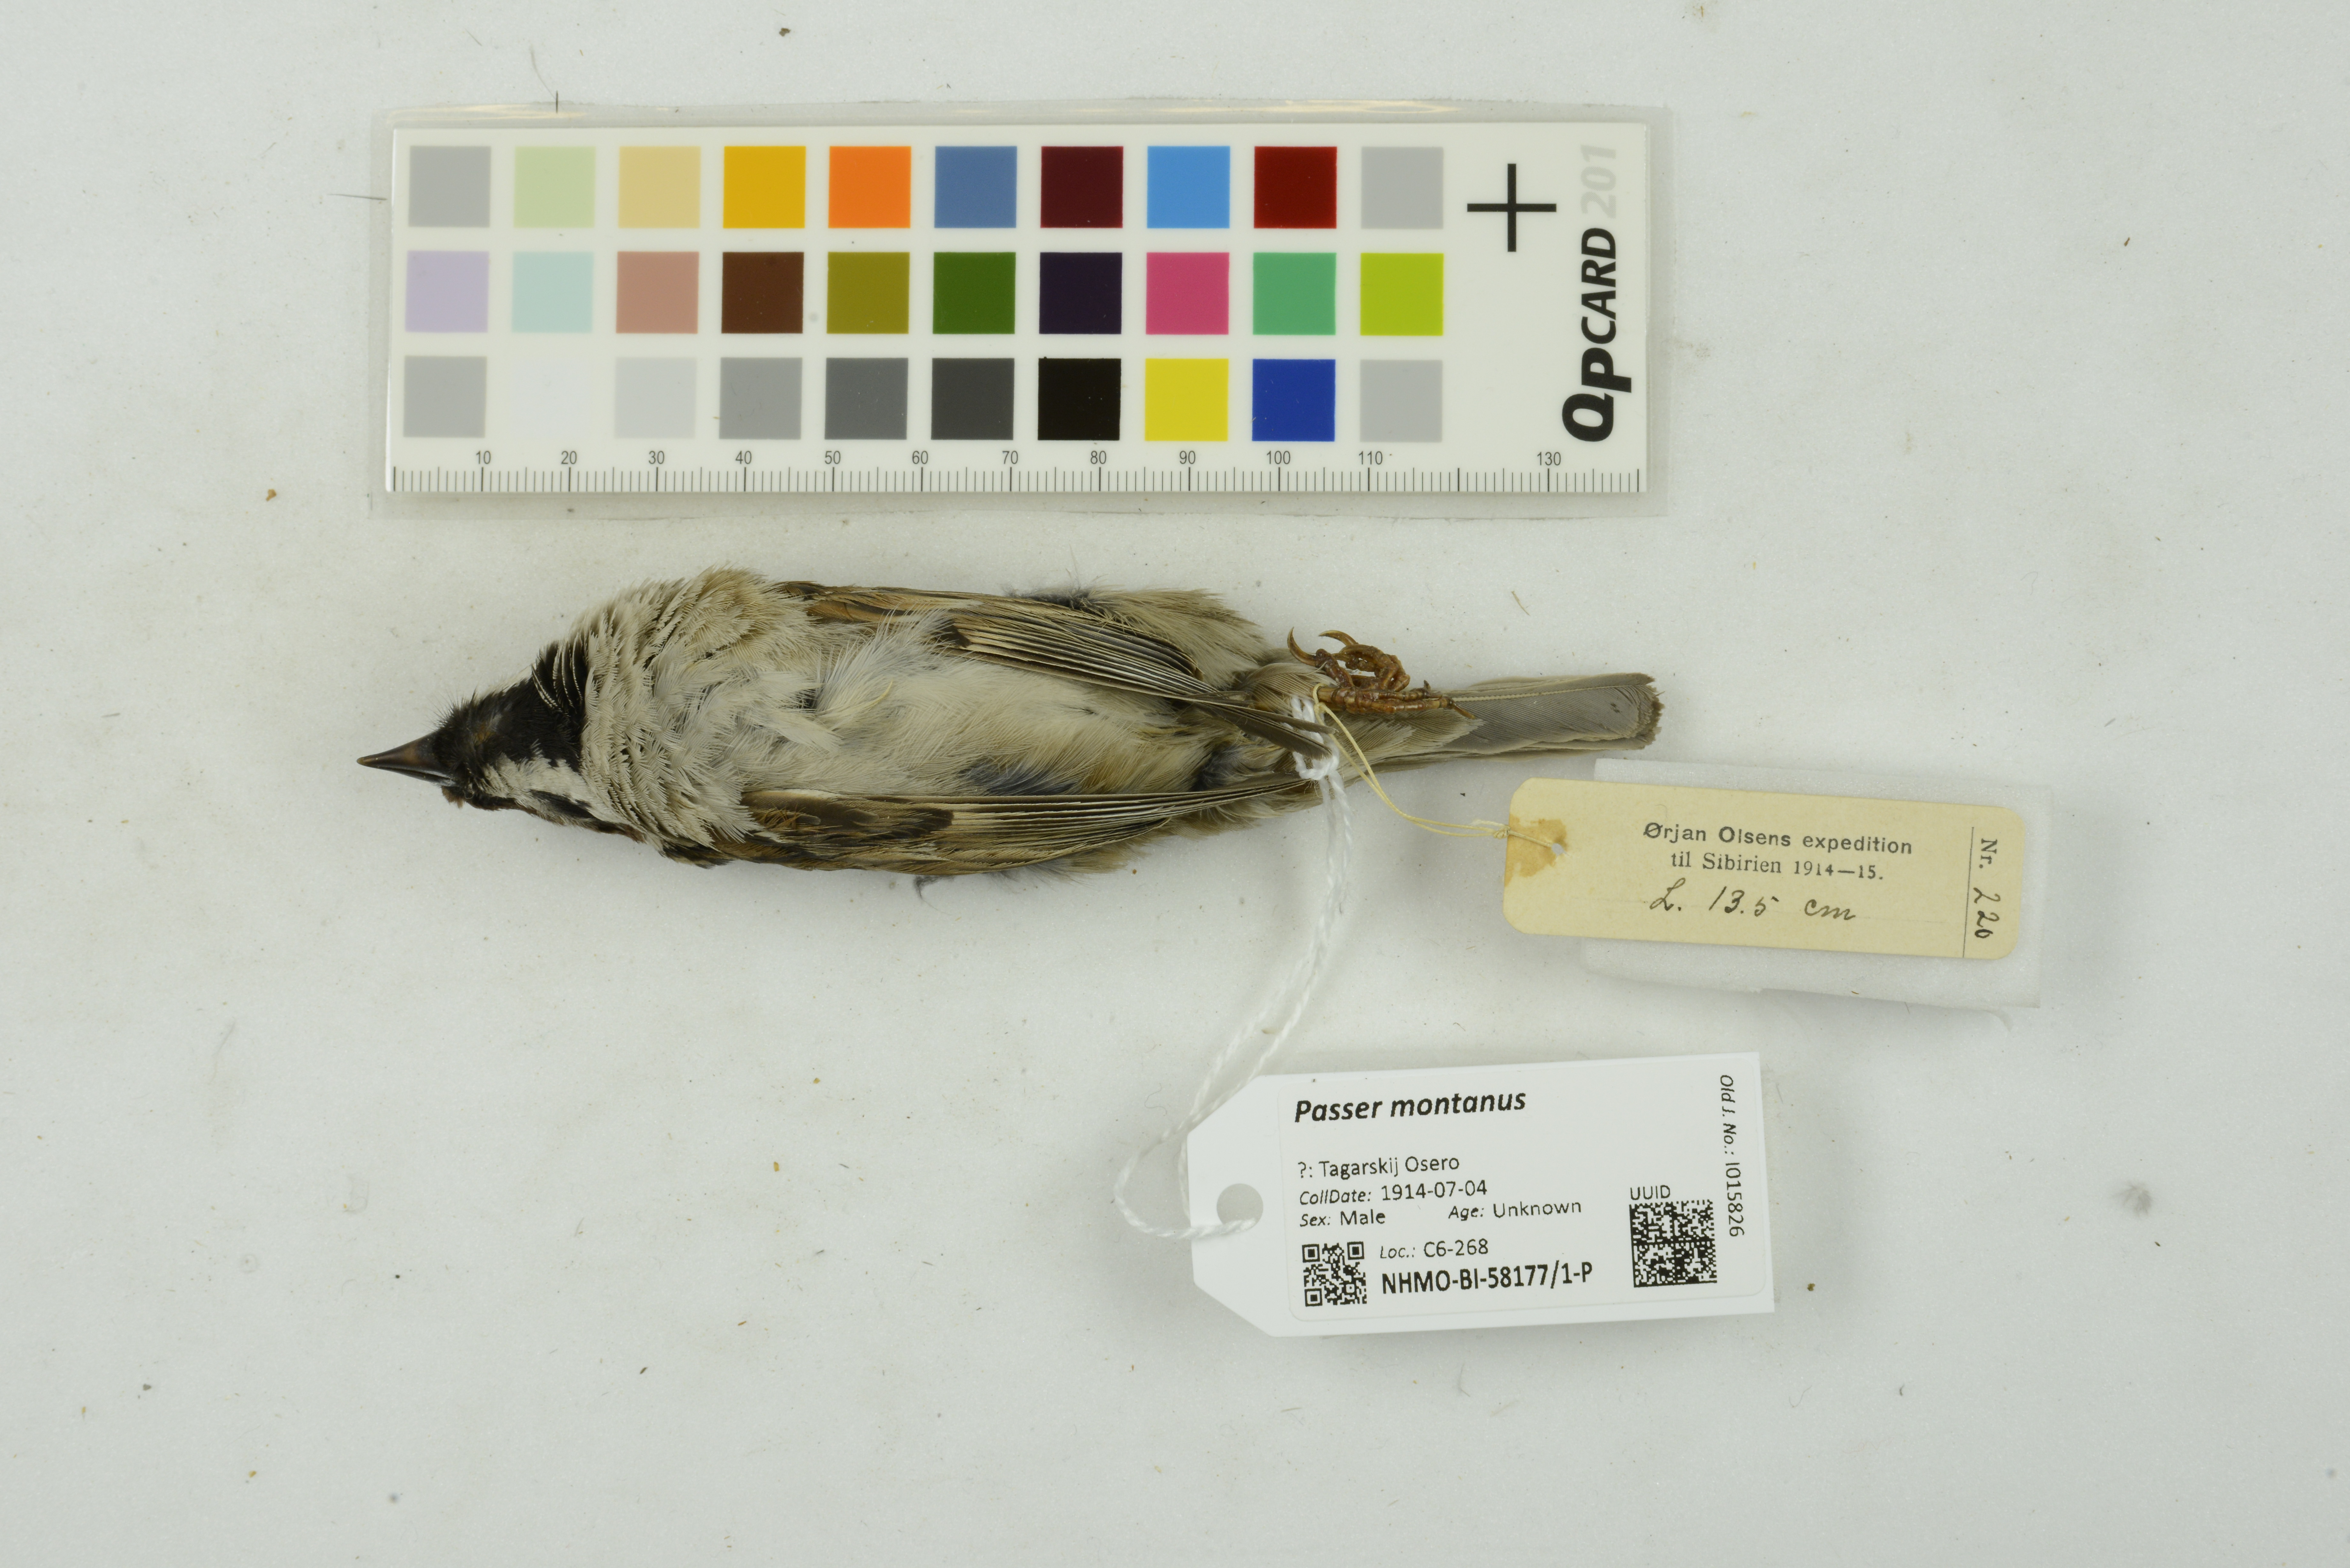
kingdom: Animalia
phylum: Chordata
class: Aves
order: Passeriformes
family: Passeridae
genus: Passer
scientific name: Passer montanus
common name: Eurasian tree sparrow
